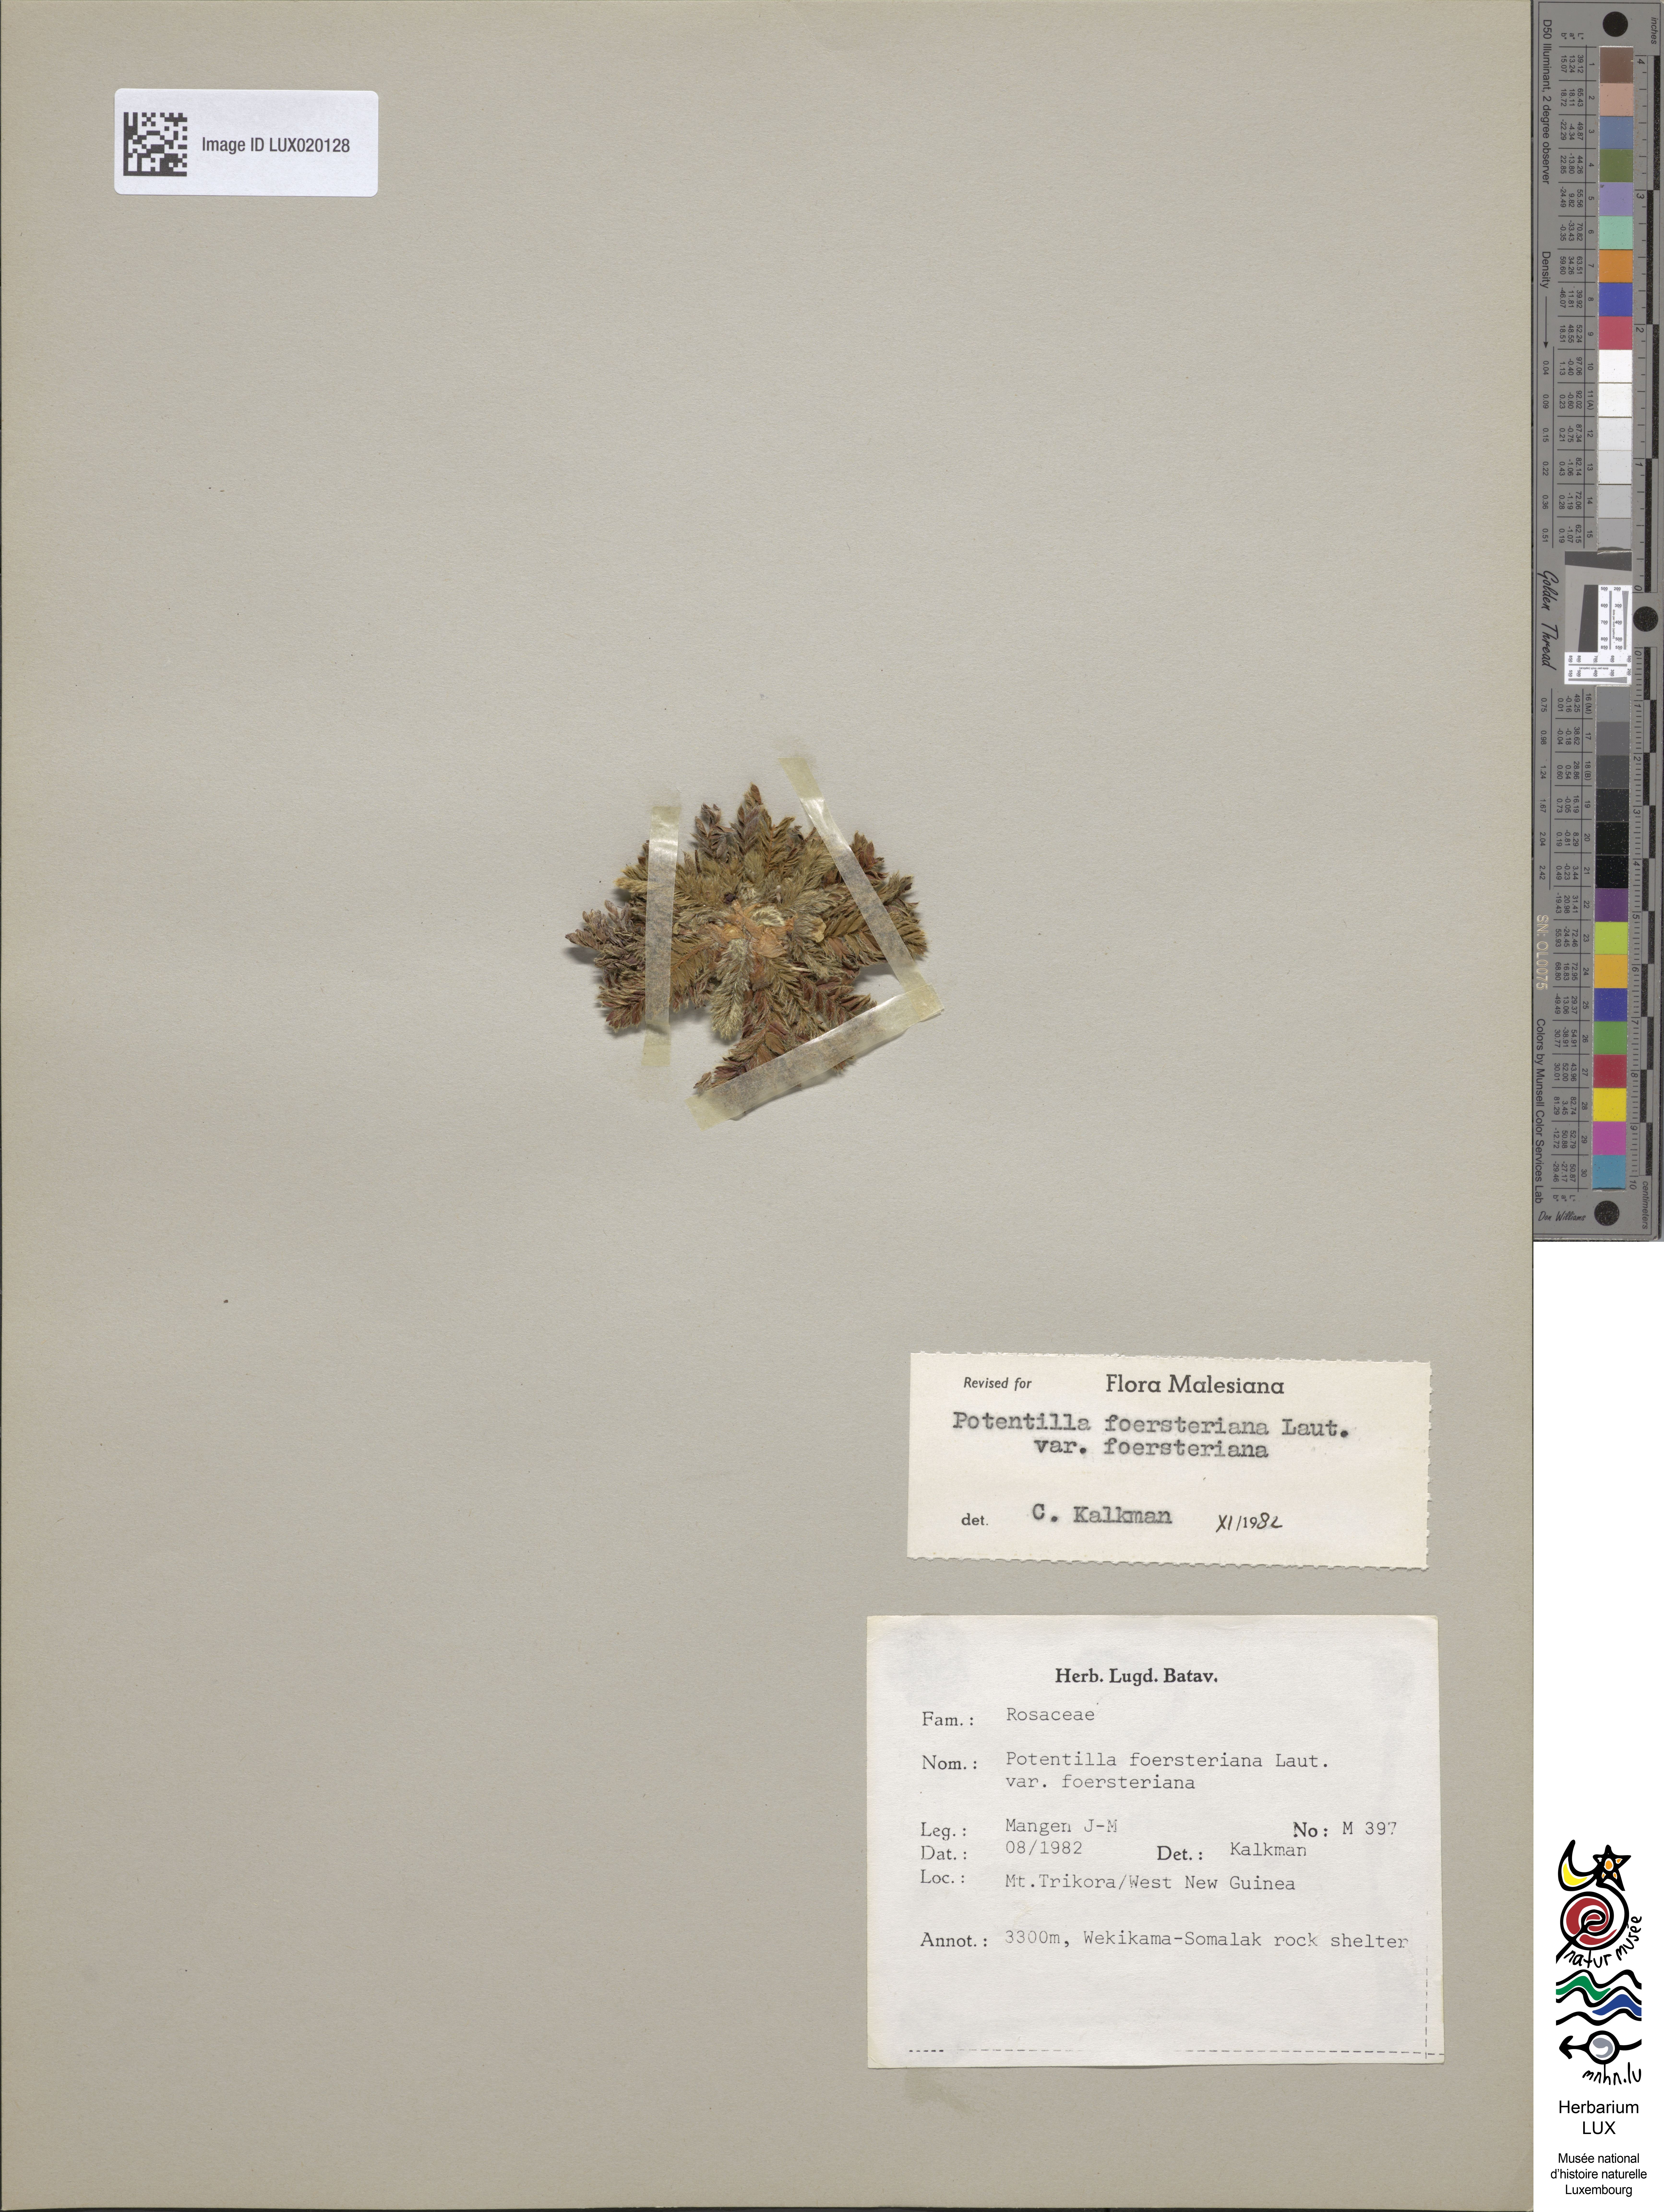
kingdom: Plantae
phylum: Tracheophyta
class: Magnoliopsida
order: Rosales
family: Rosaceae
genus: Potentilla
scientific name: Potentilla foersteriana
